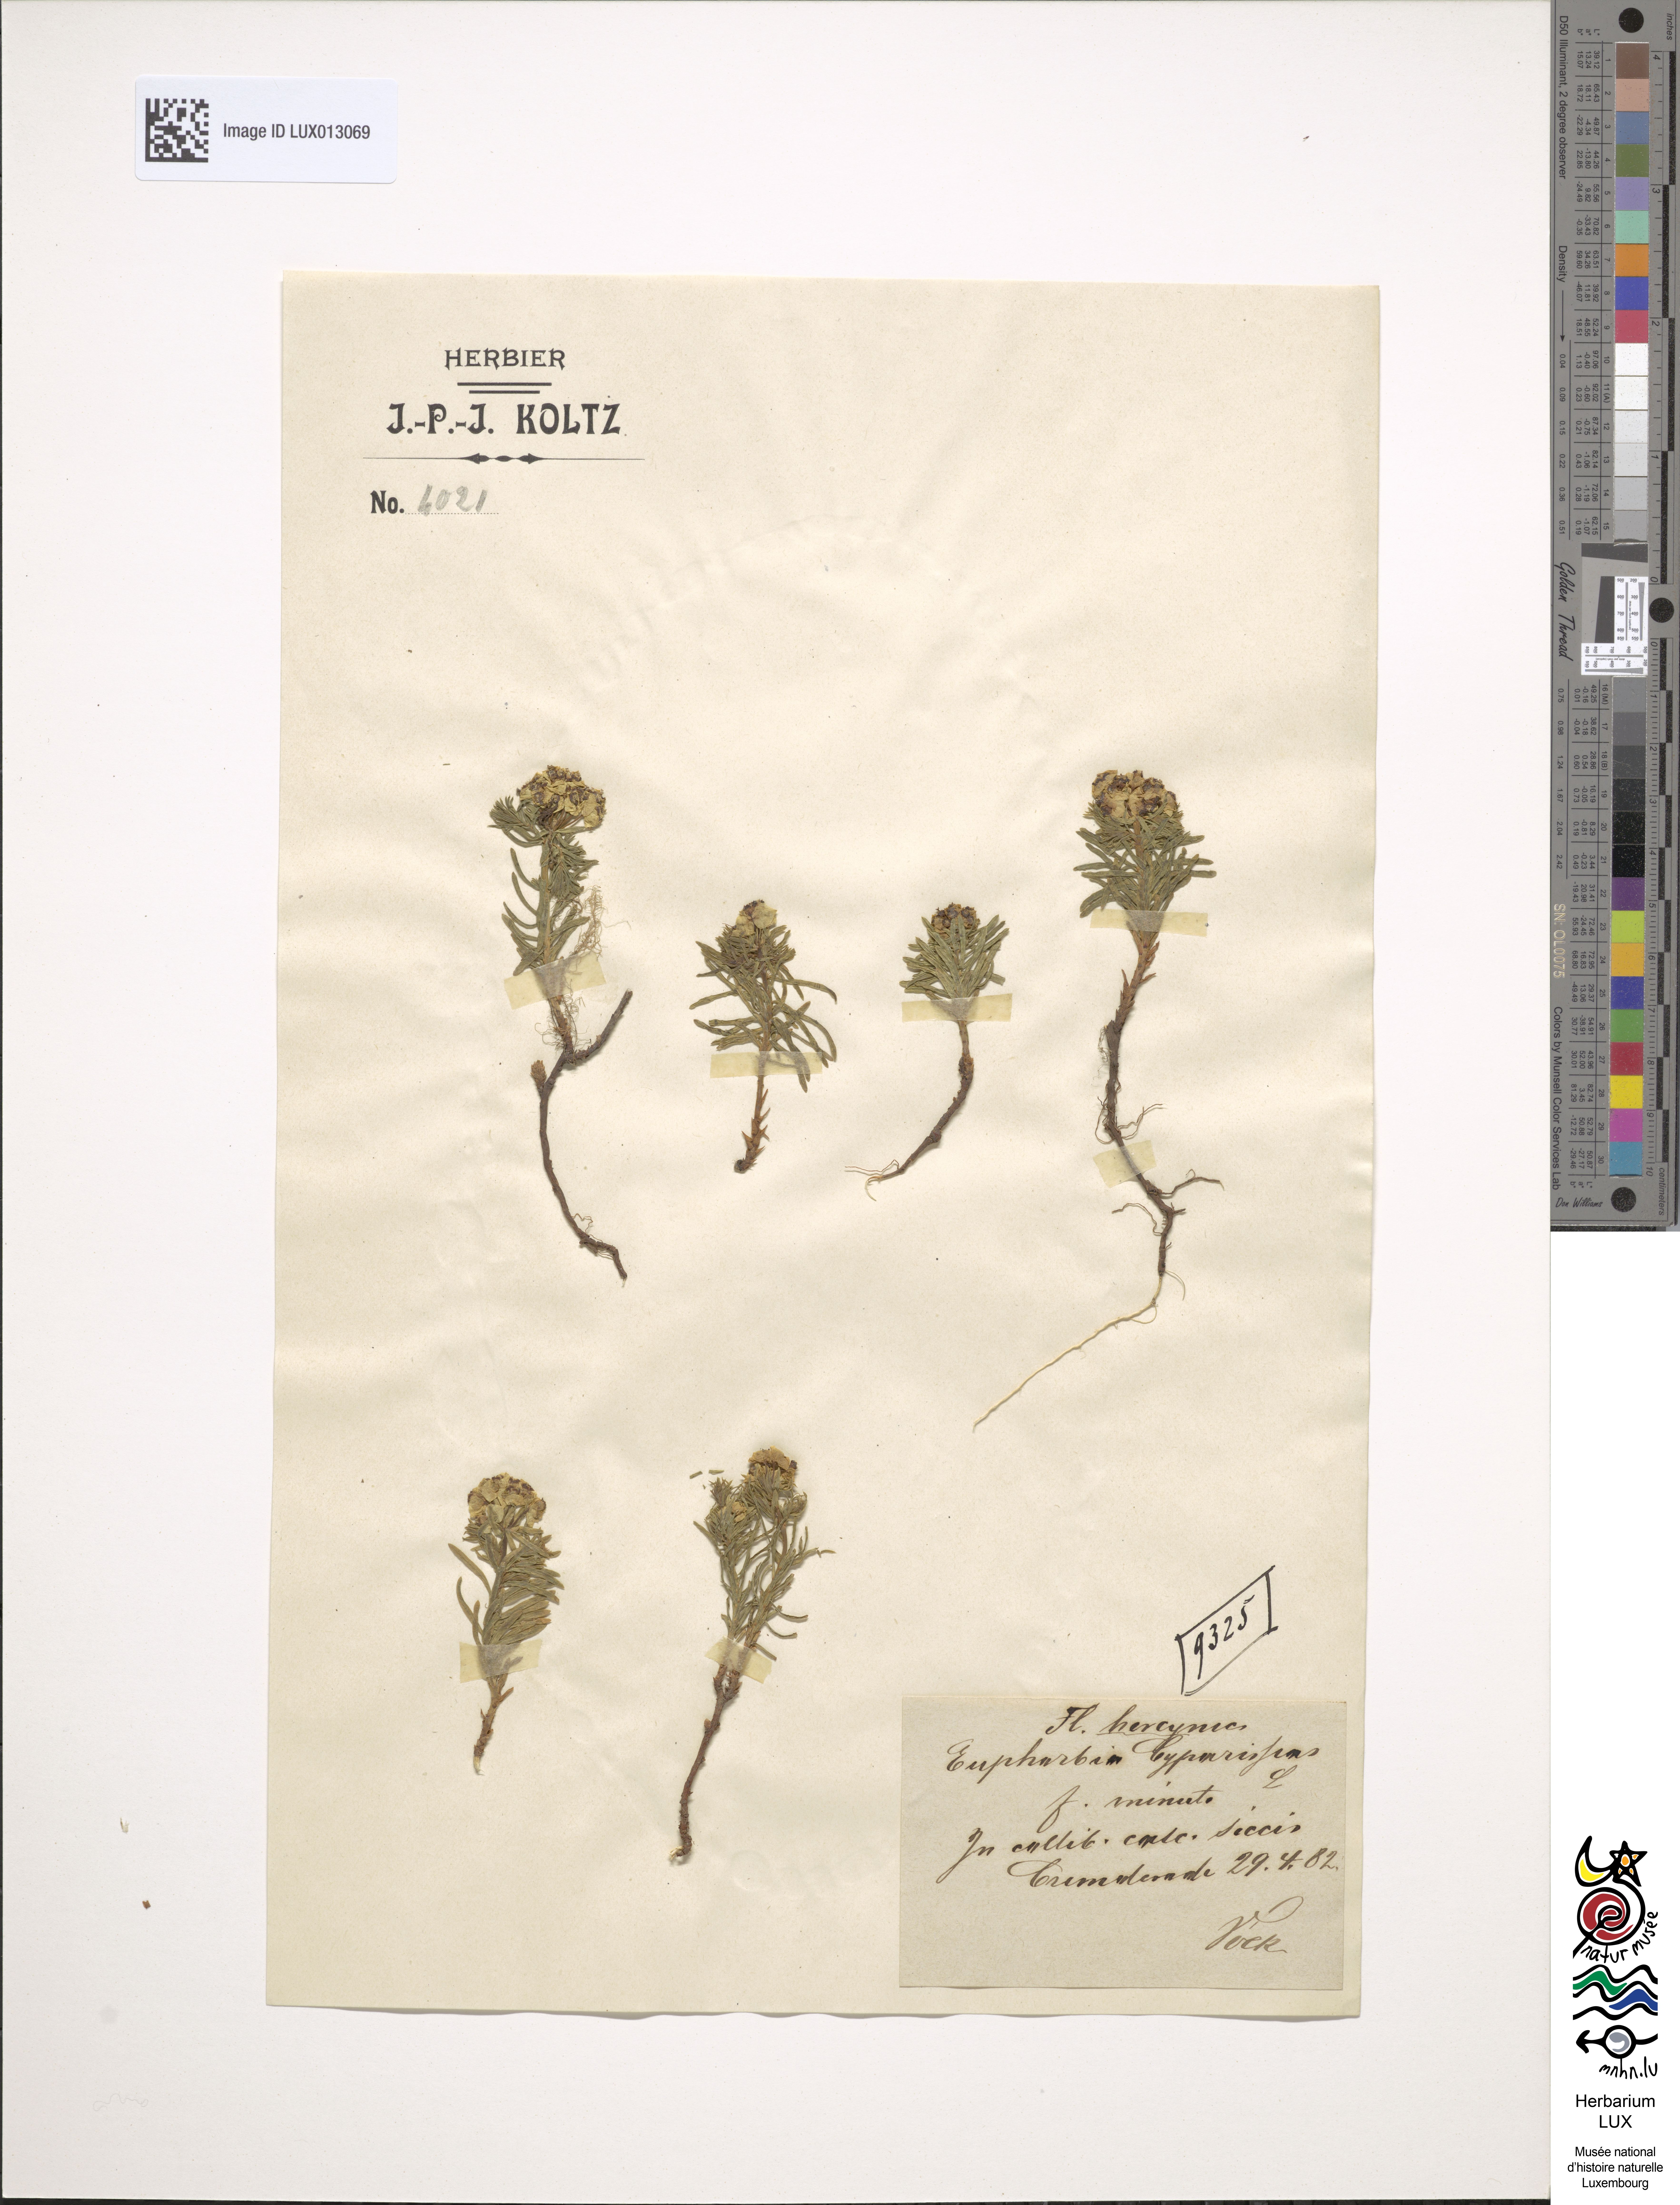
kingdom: Plantae
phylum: Tracheophyta
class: Magnoliopsida
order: Malpighiales
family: Euphorbiaceae
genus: Euphorbia
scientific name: Euphorbia cyparissias
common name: Cypress spurge
